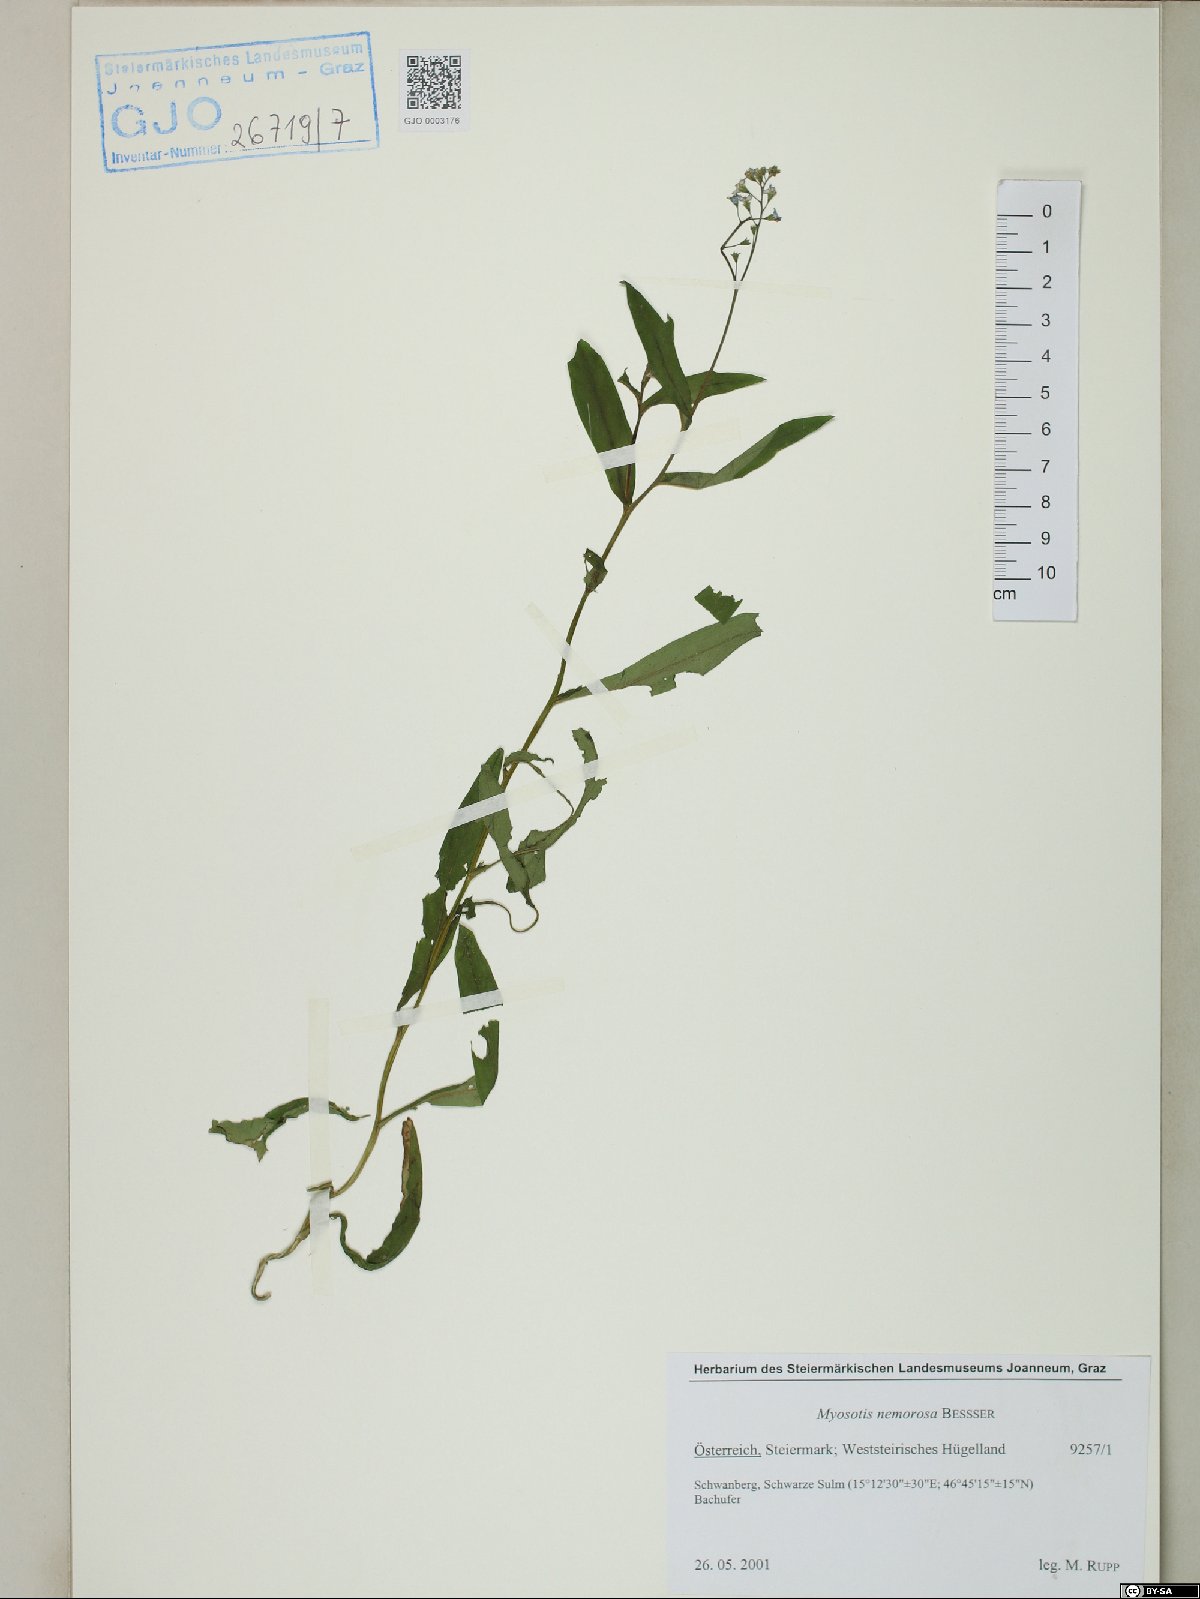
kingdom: Plantae
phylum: Tracheophyta
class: Magnoliopsida
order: Boraginales
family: Boraginaceae
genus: Myosotis
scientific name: Myosotis nemorosa
